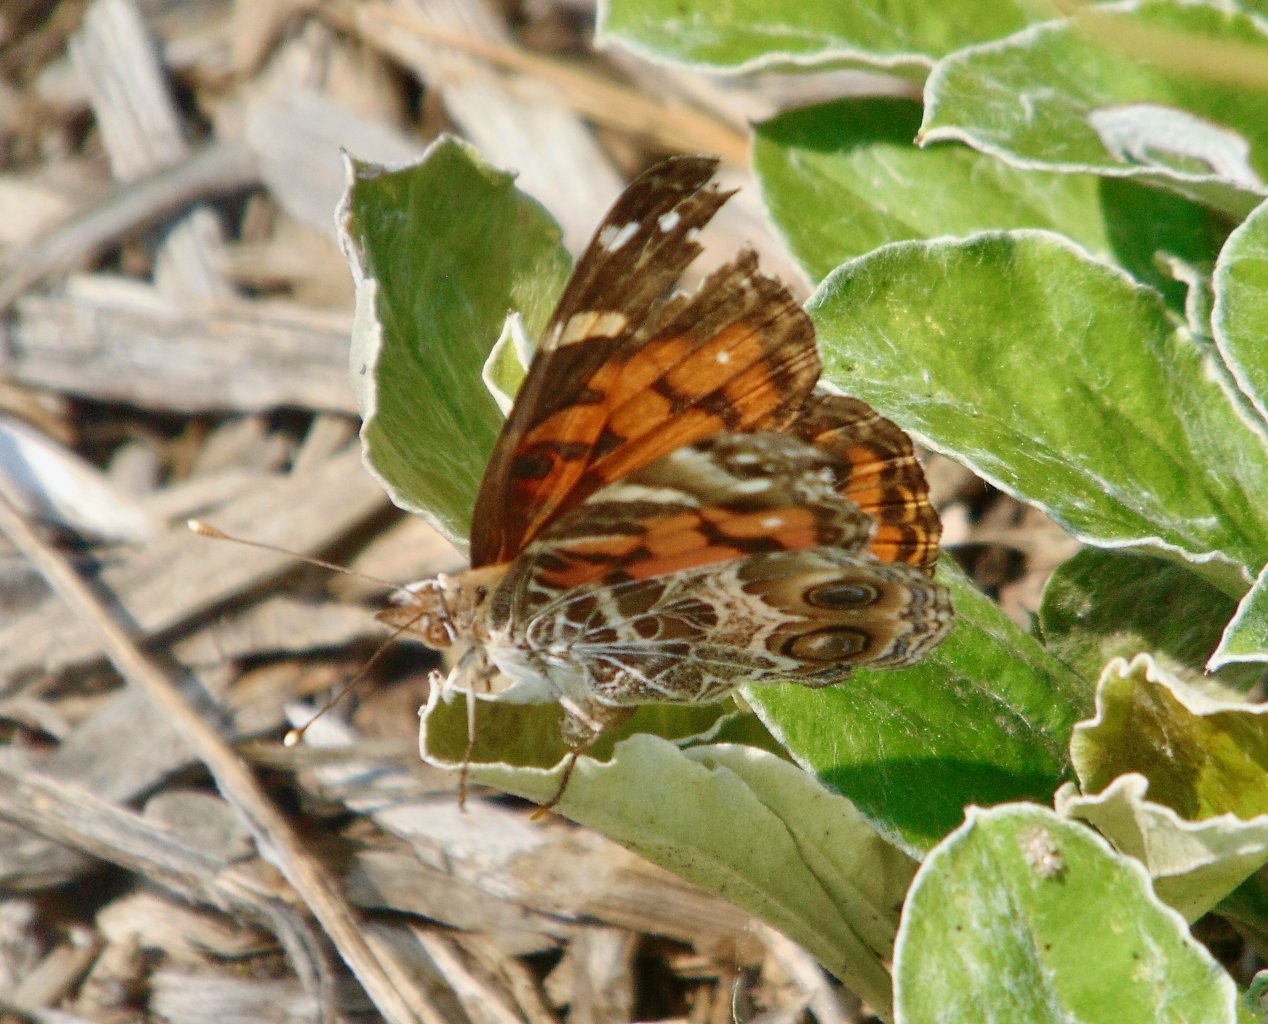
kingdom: Animalia
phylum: Arthropoda
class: Insecta
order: Lepidoptera
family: Nymphalidae
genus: Vanessa
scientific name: Vanessa virginiensis
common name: American Lady
